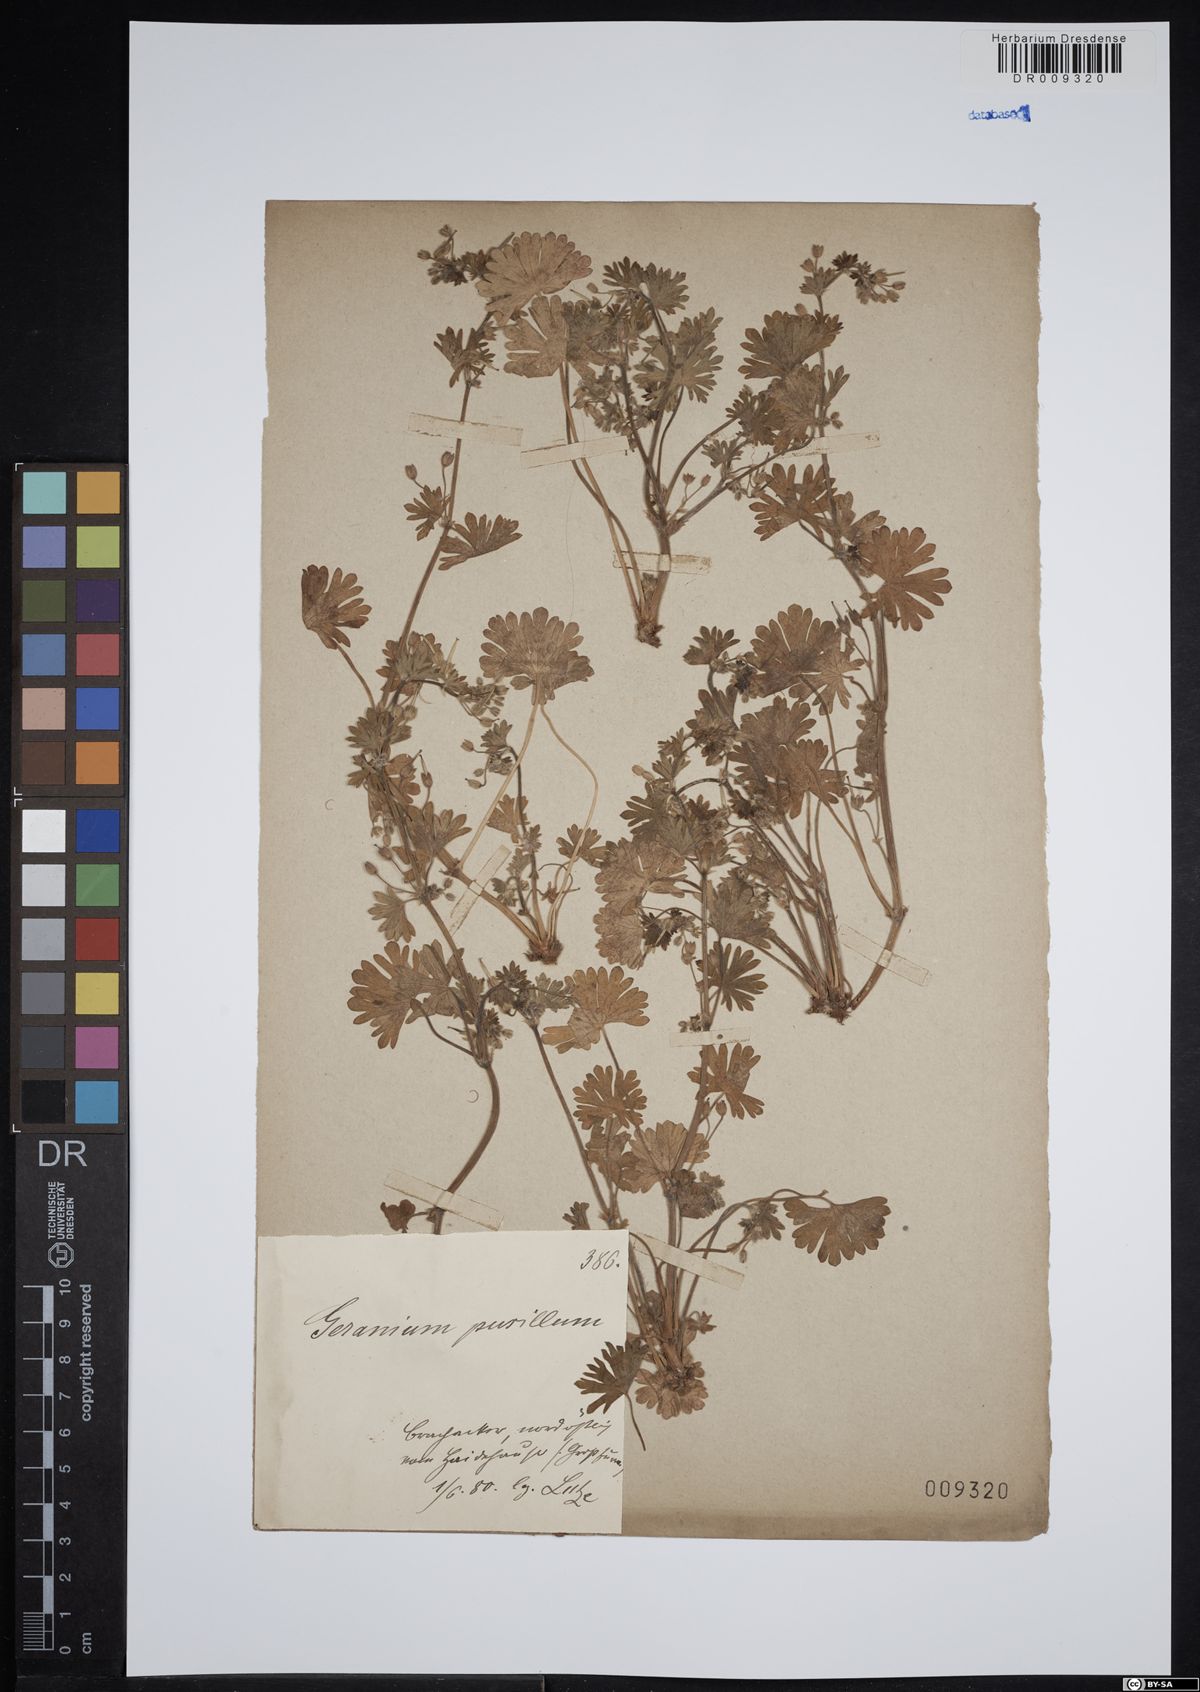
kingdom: Plantae
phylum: Tracheophyta
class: Magnoliopsida
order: Geraniales
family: Geraniaceae
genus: Geranium
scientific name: Geranium pusillum
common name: Small geranium
